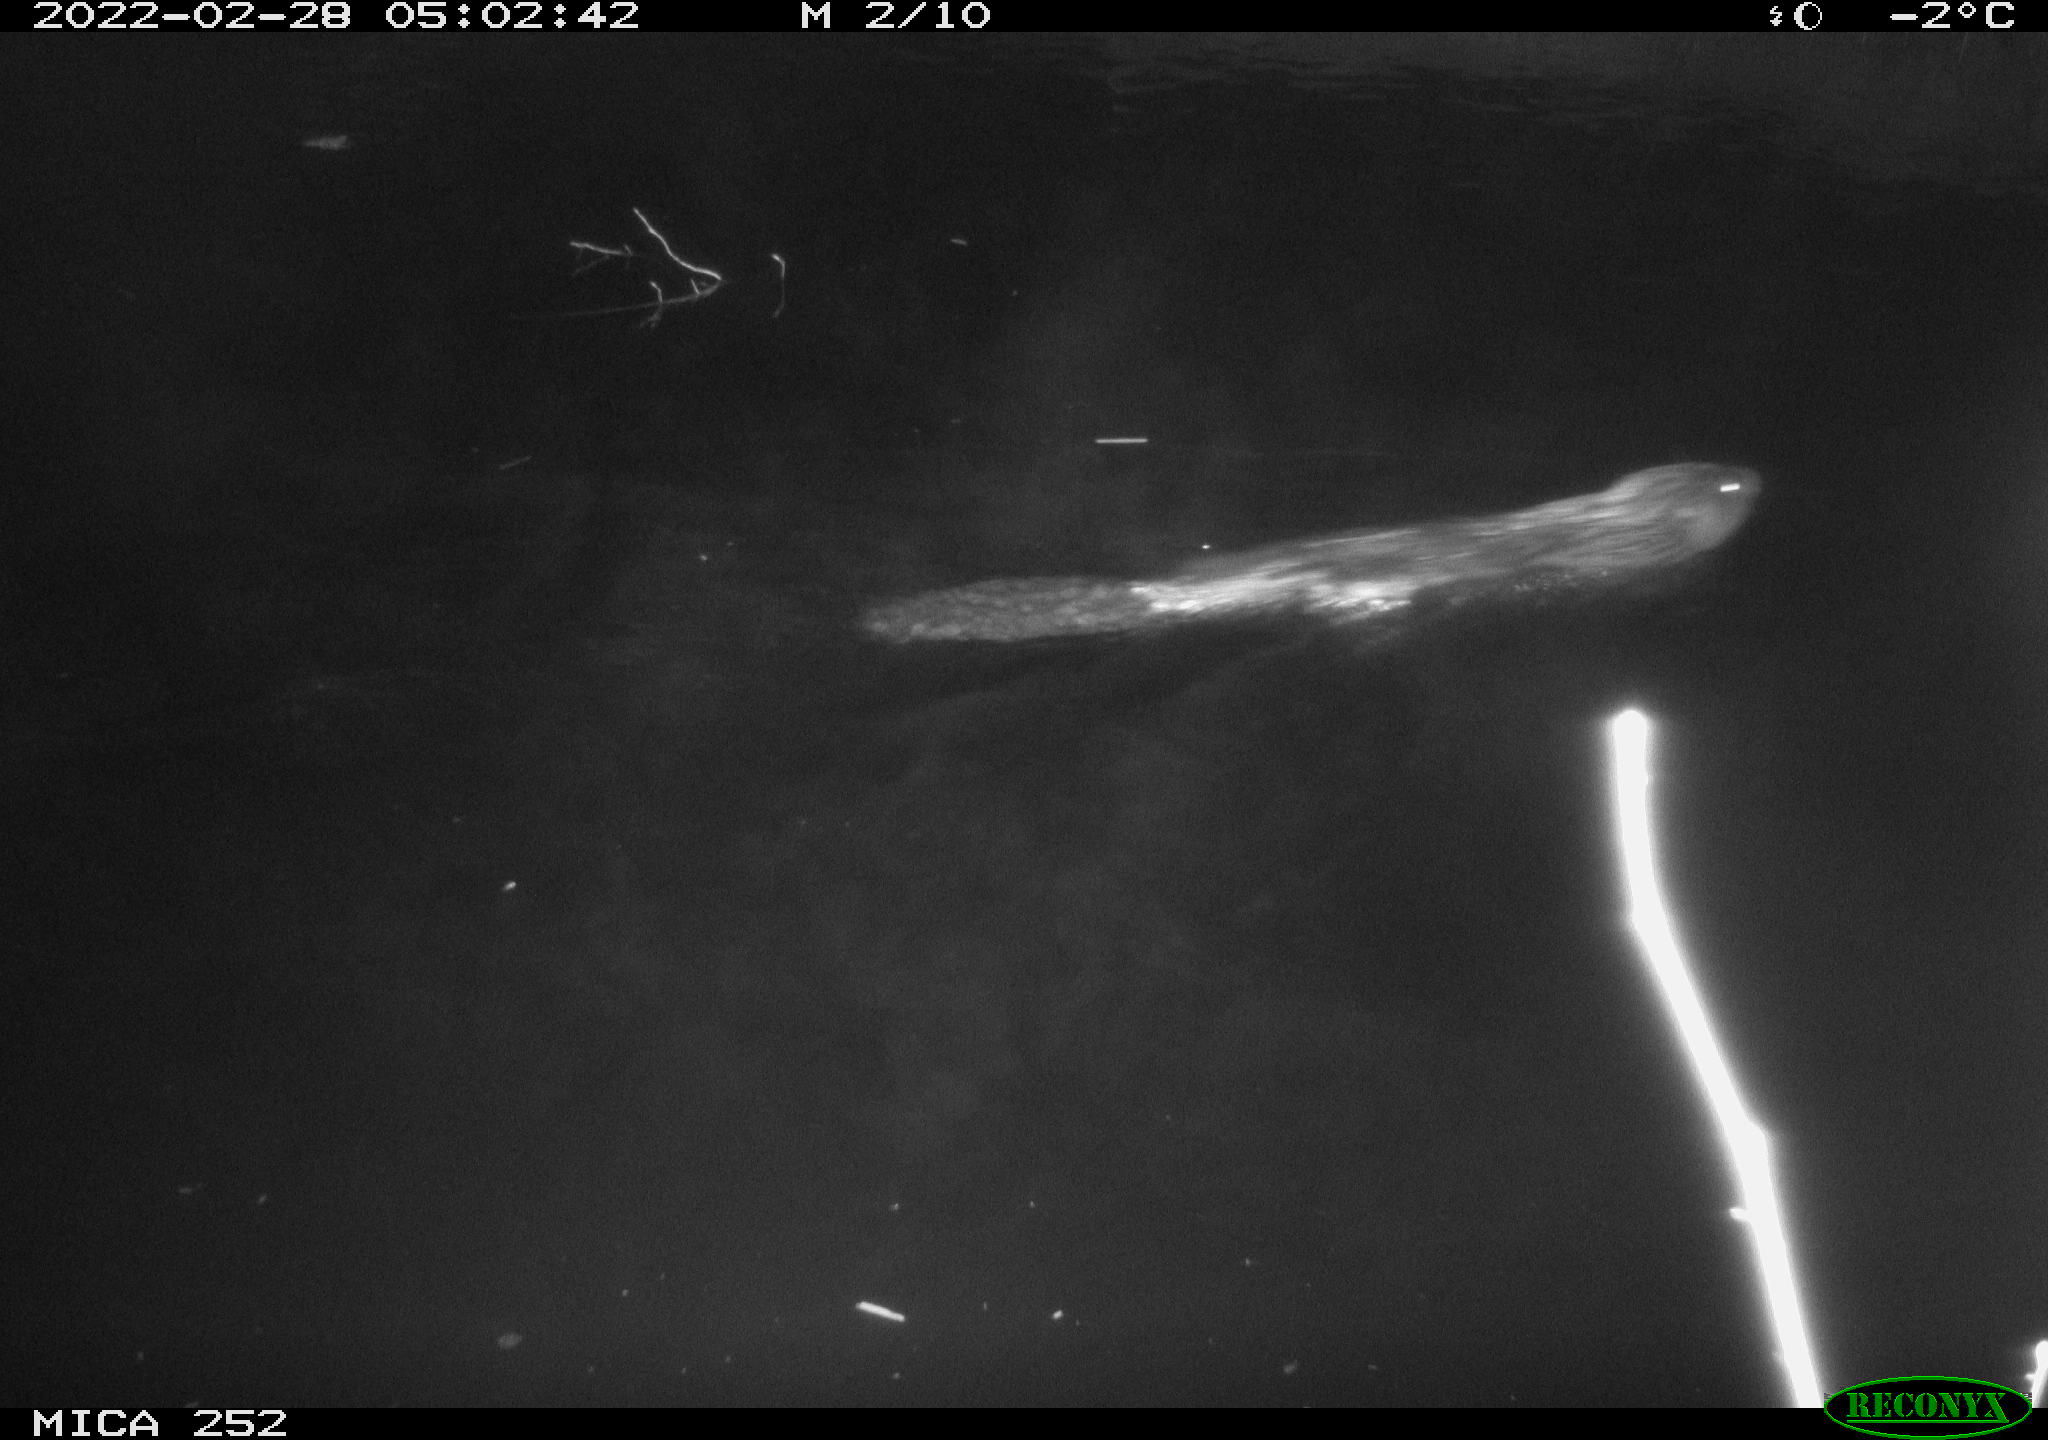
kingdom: Animalia
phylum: Chordata
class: Mammalia
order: Rodentia
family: Castoridae
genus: Castor
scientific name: Castor fiber
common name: Eurasian beaver
